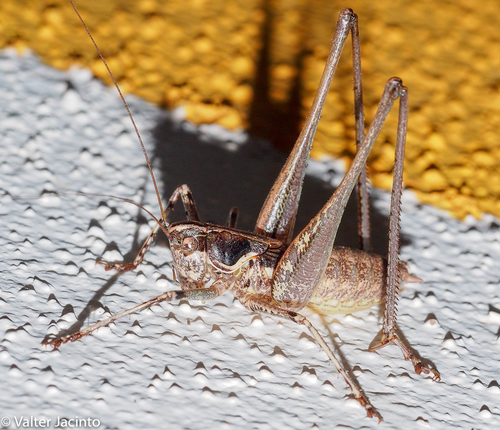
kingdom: Animalia
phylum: Arthropoda
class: Insecta
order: Orthoptera
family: Tettigoniidae
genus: Pterolepis
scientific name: Pterolepis spoliata
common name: Disarmed bush-cricket
